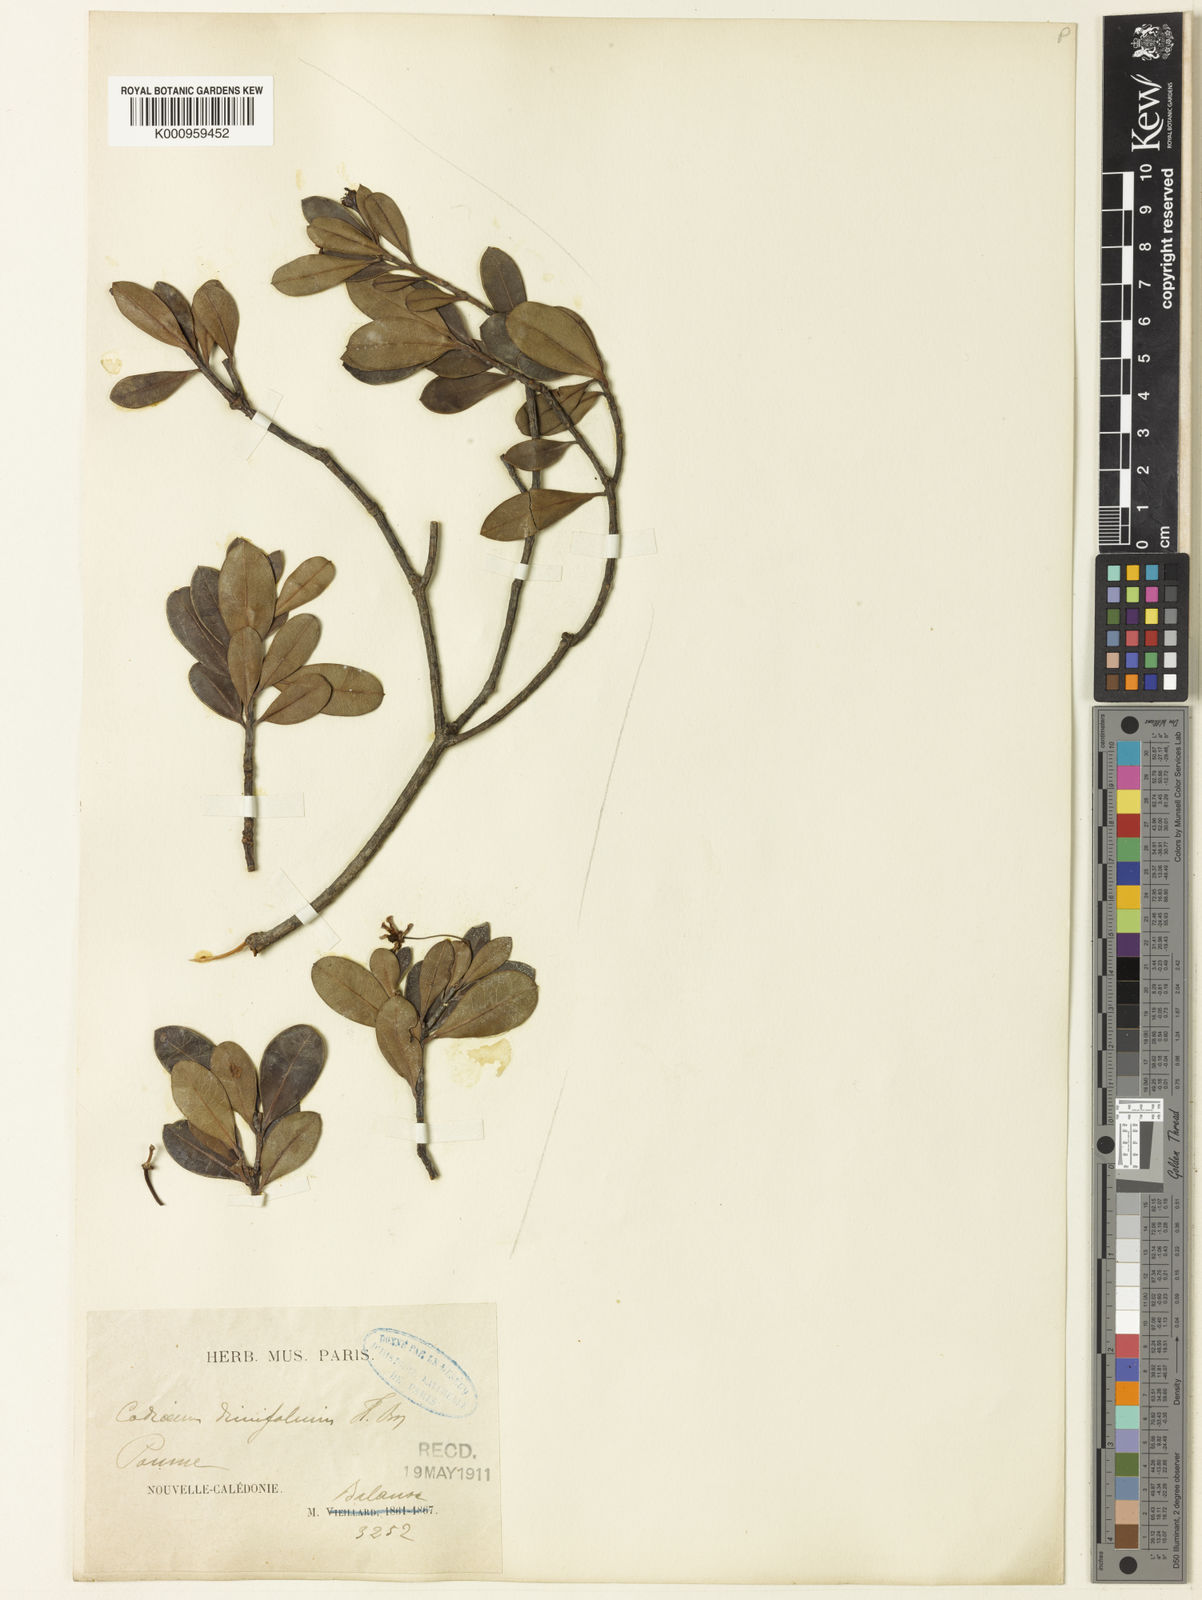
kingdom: Plantae
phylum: Tracheophyta
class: Magnoliopsida
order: Malpighiales
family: Euphorbiaceae
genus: Baloghia
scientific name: Baloghia drimiflora
